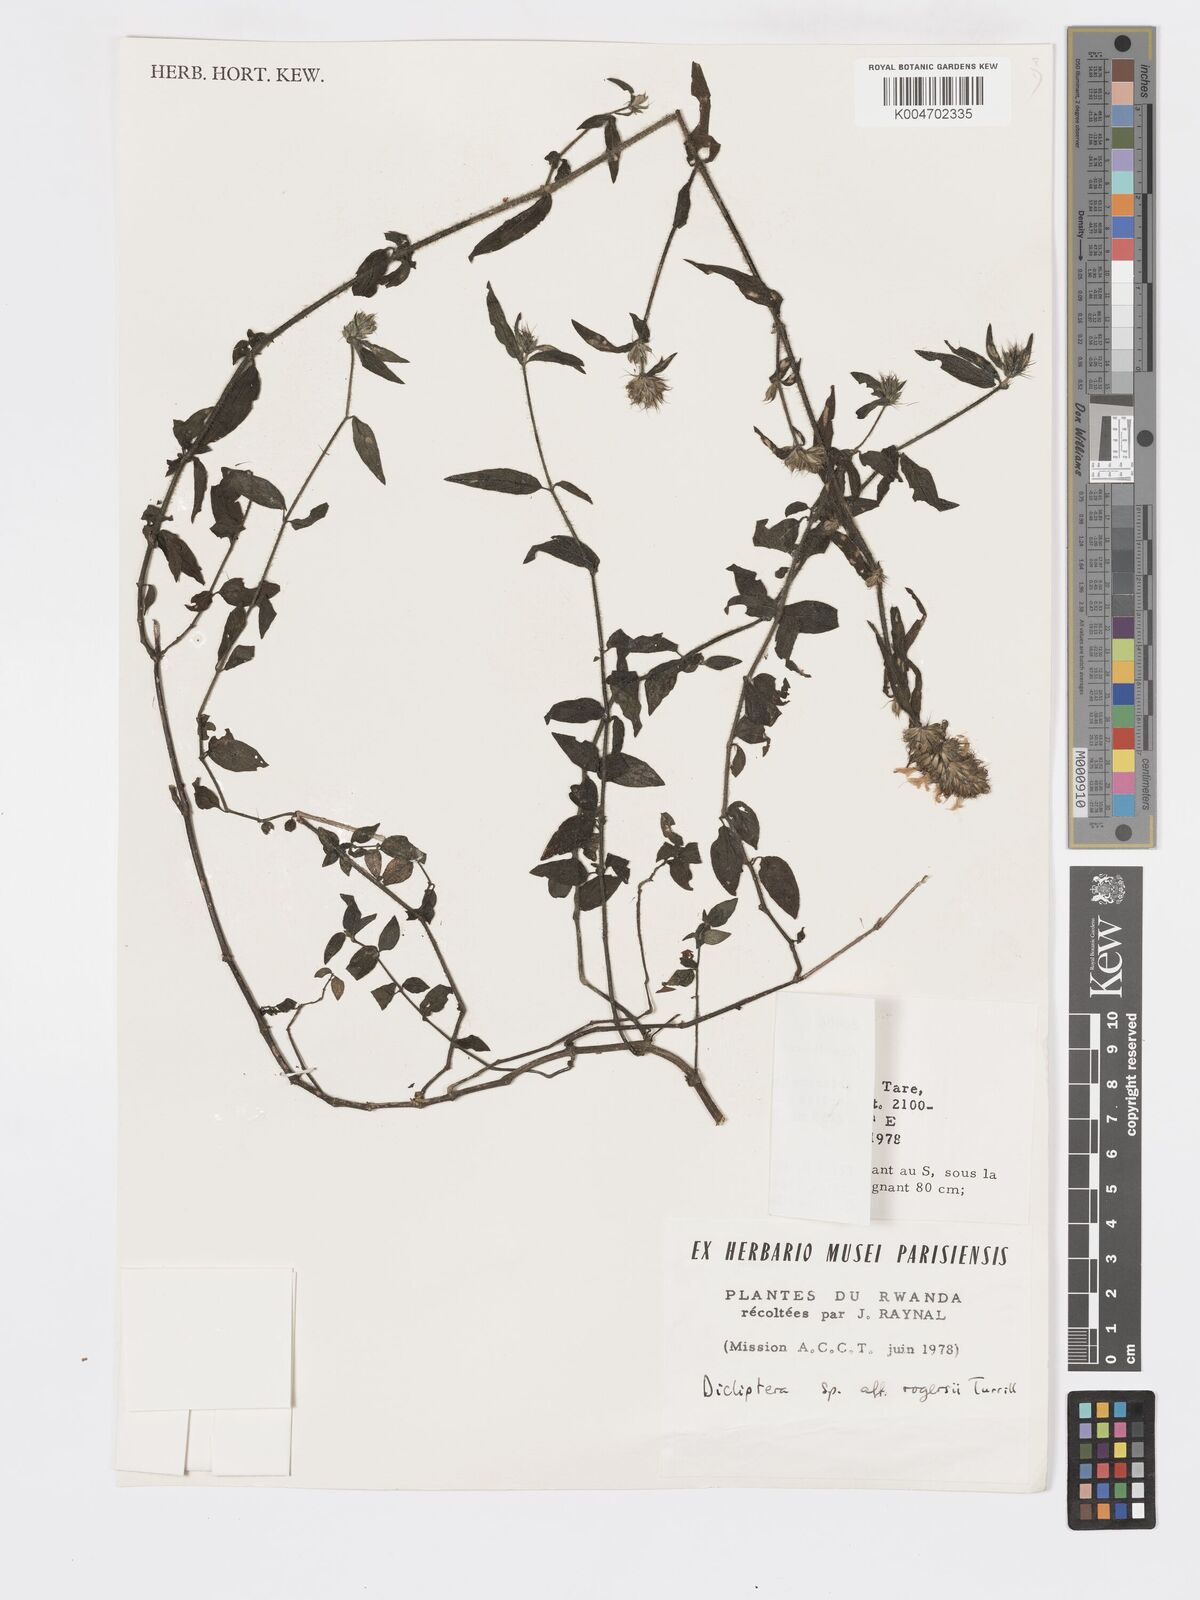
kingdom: Plantae
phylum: Tracheophyta
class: Magnoliopsida
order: Lamiales
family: Acanthaceae
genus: Dicliptera
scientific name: Dicliptera carvalhoi
